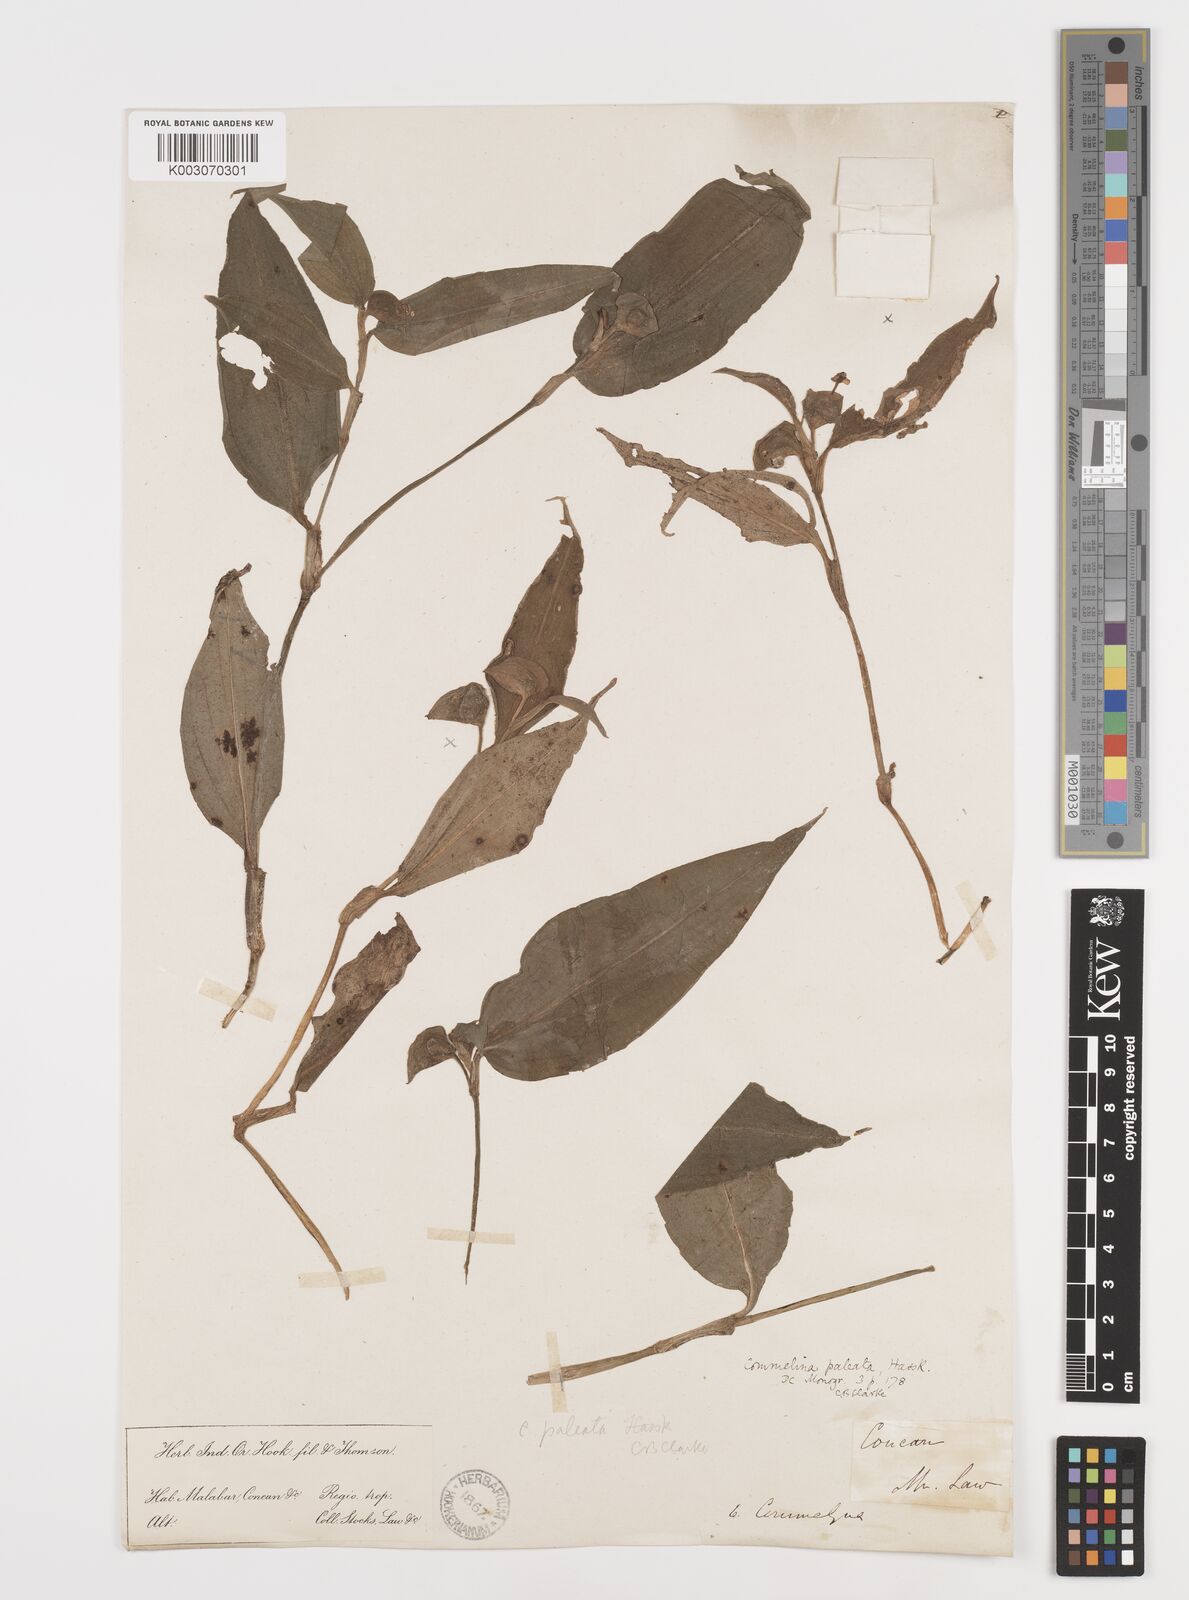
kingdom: Plantae
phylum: Tracheophyta
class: Liliopsida
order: Commelinales
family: Commelinaceae
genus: Commelina
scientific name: Commelina paleata
